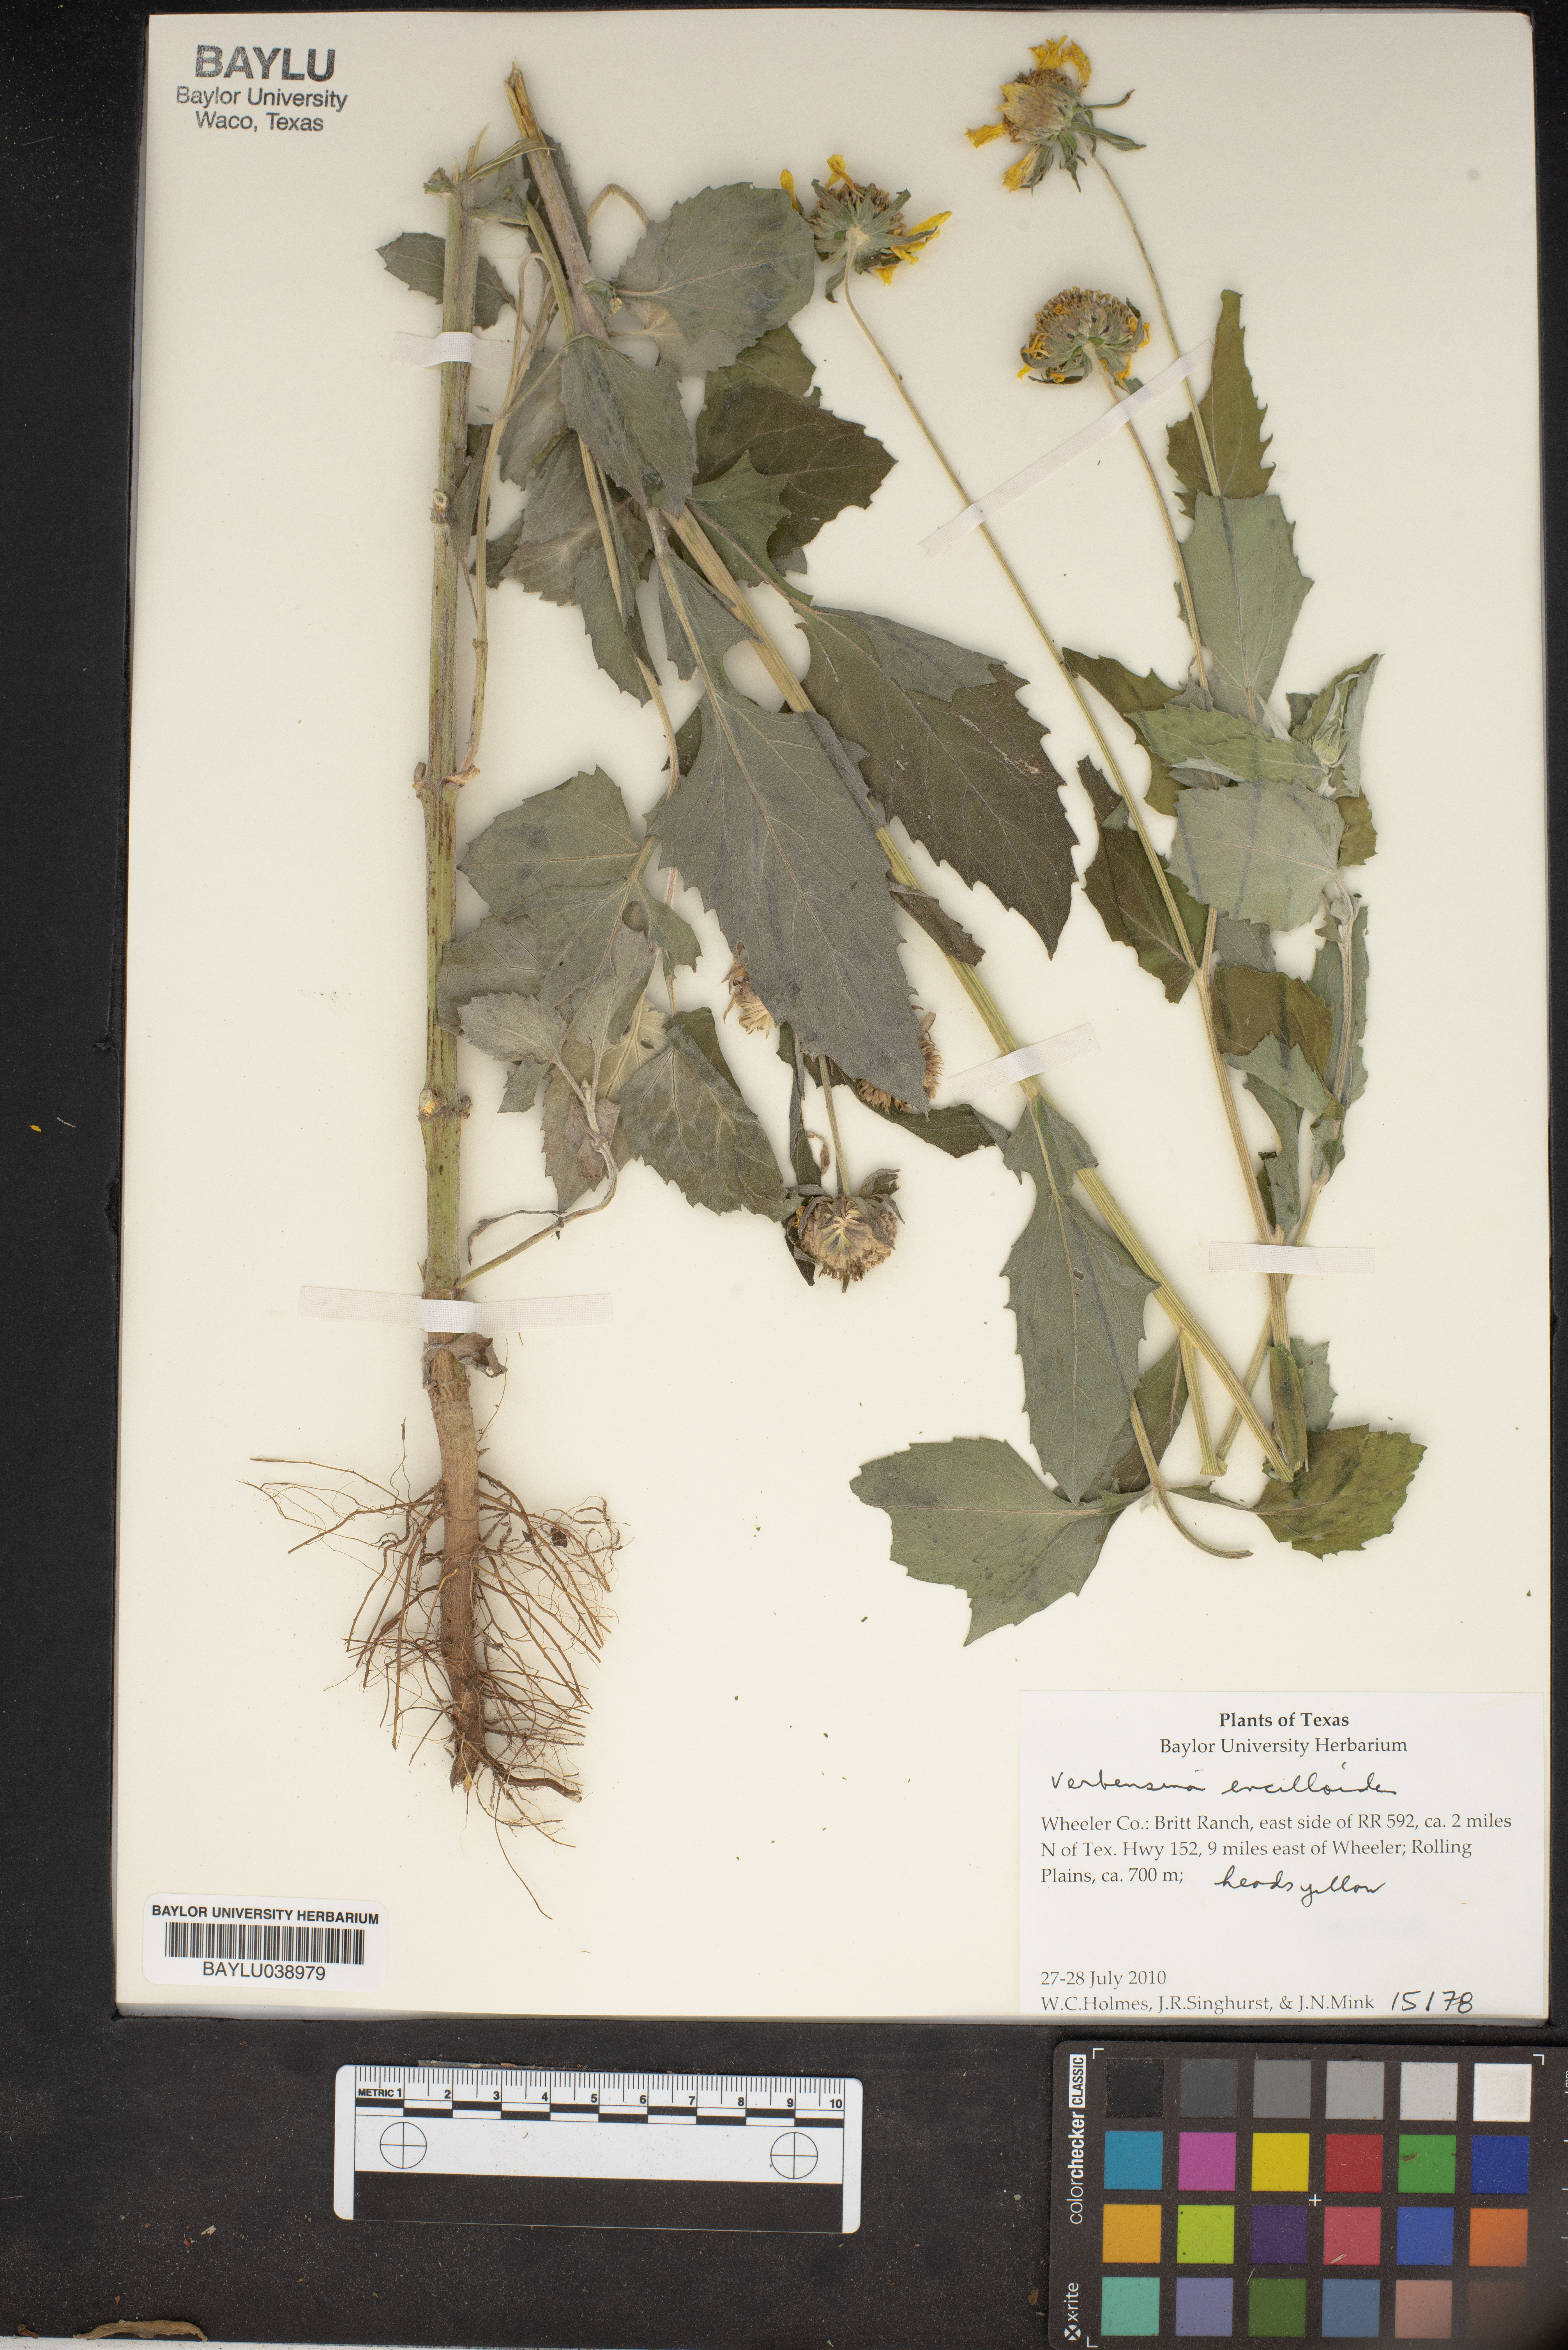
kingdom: Plantae
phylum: Tracheophyta
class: Magnoliopsida
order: Asterales
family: Asteraceae
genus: Verbesina
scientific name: Verbesina encelioides
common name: Golden crownbeard
